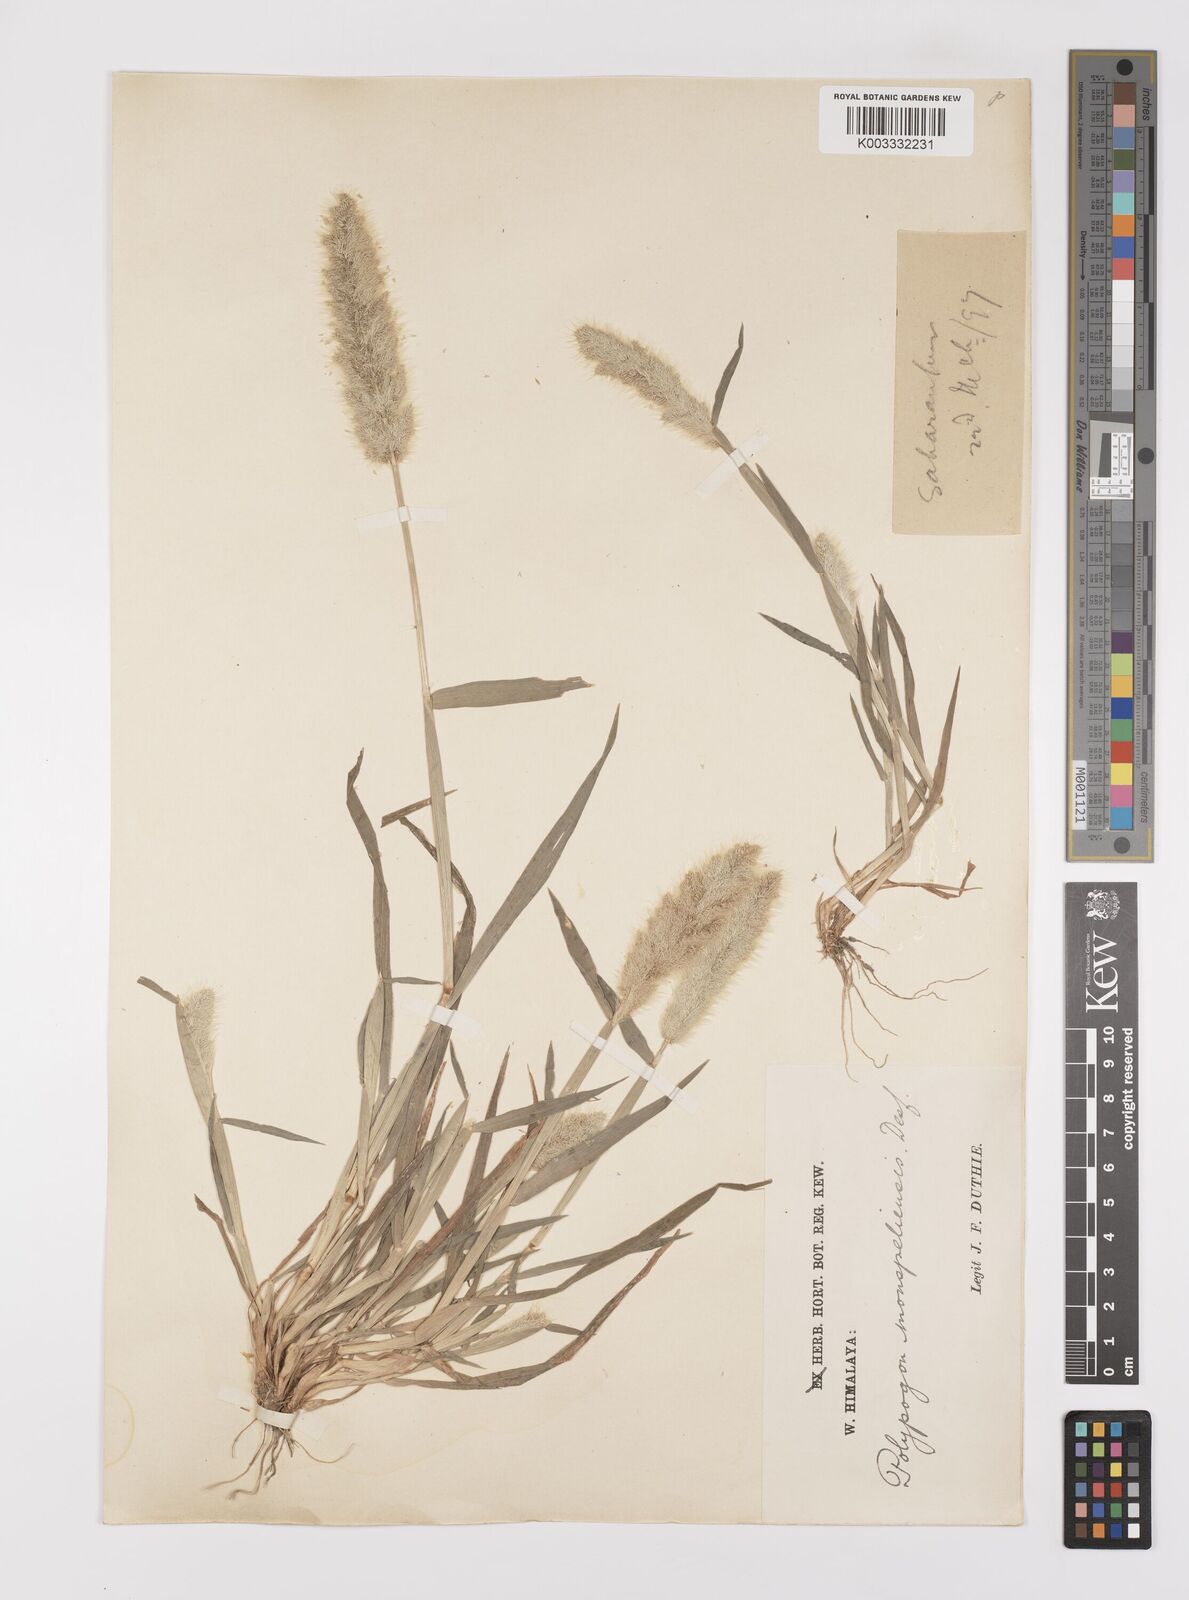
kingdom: Plantae
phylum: Tracheophyta
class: Liliopsida
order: Poales
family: Poaceae
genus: Polypogon
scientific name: Polypogon monspeliensis
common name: Annual rabbitsfoot grass
